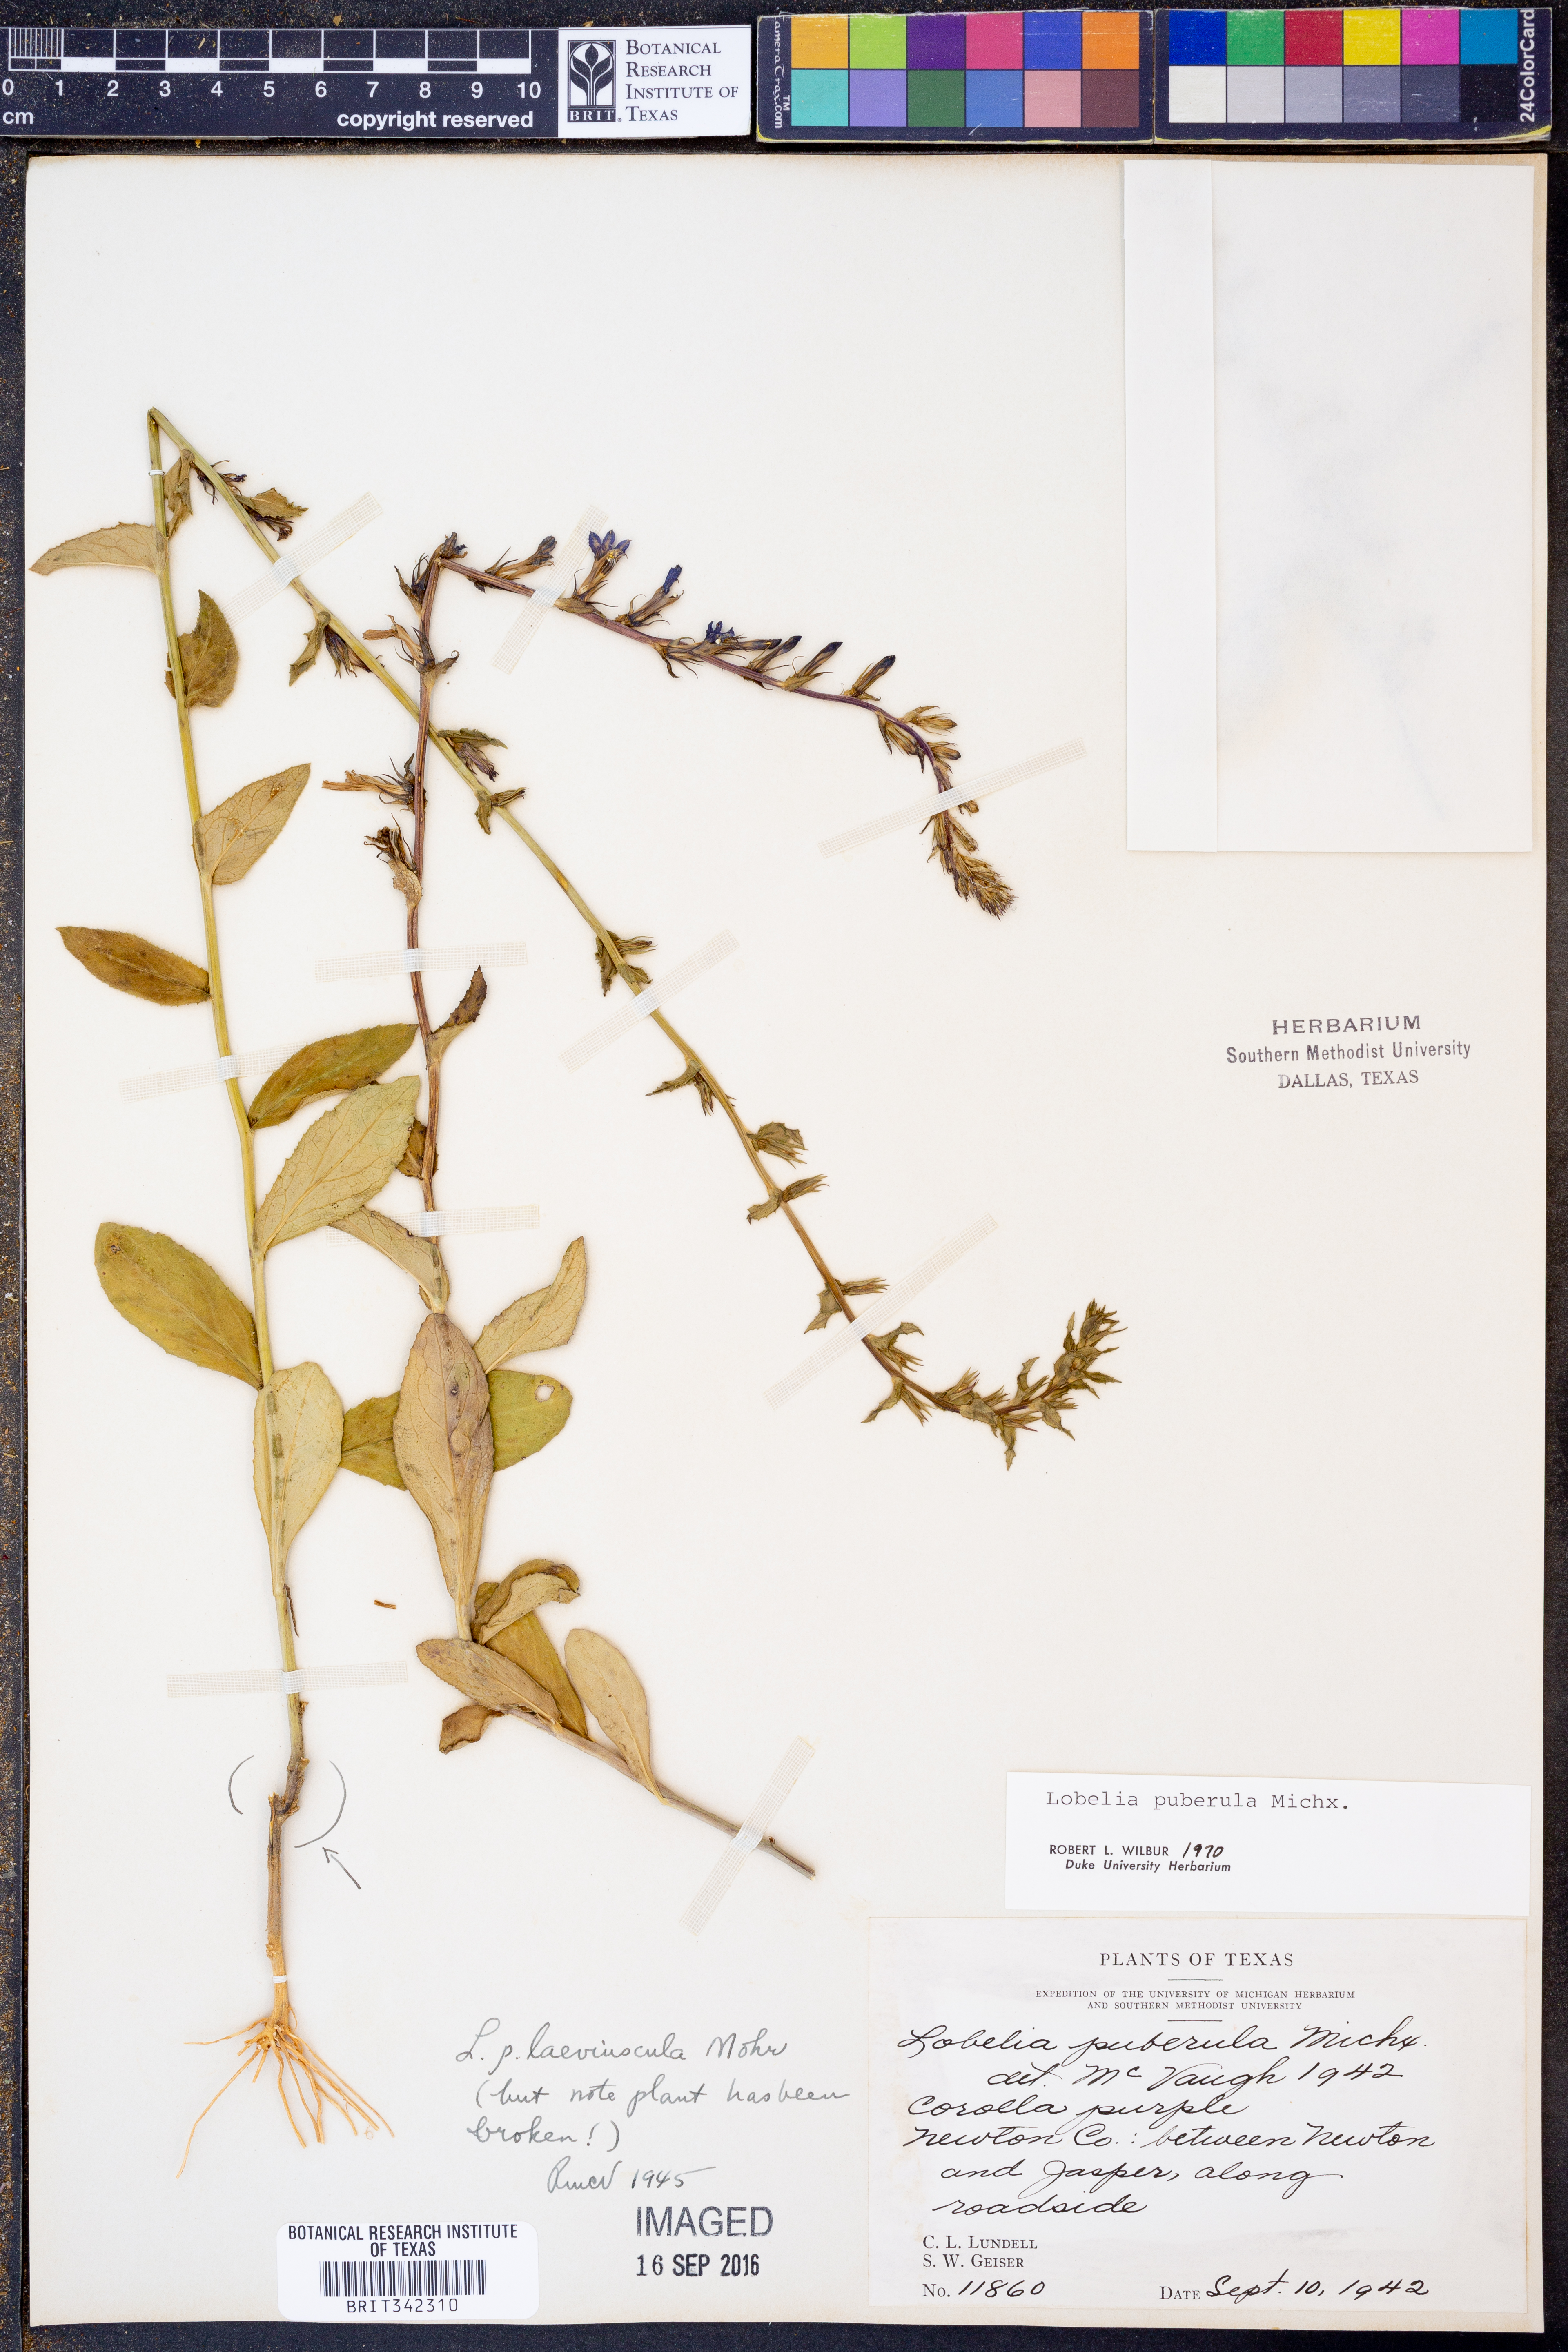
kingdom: Plantae
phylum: Tracheophyta
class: Magnoliopsida
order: Asterales
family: Campanulaceae
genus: Lobelia
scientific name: Lobelia puberula
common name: Purple dewdrop
